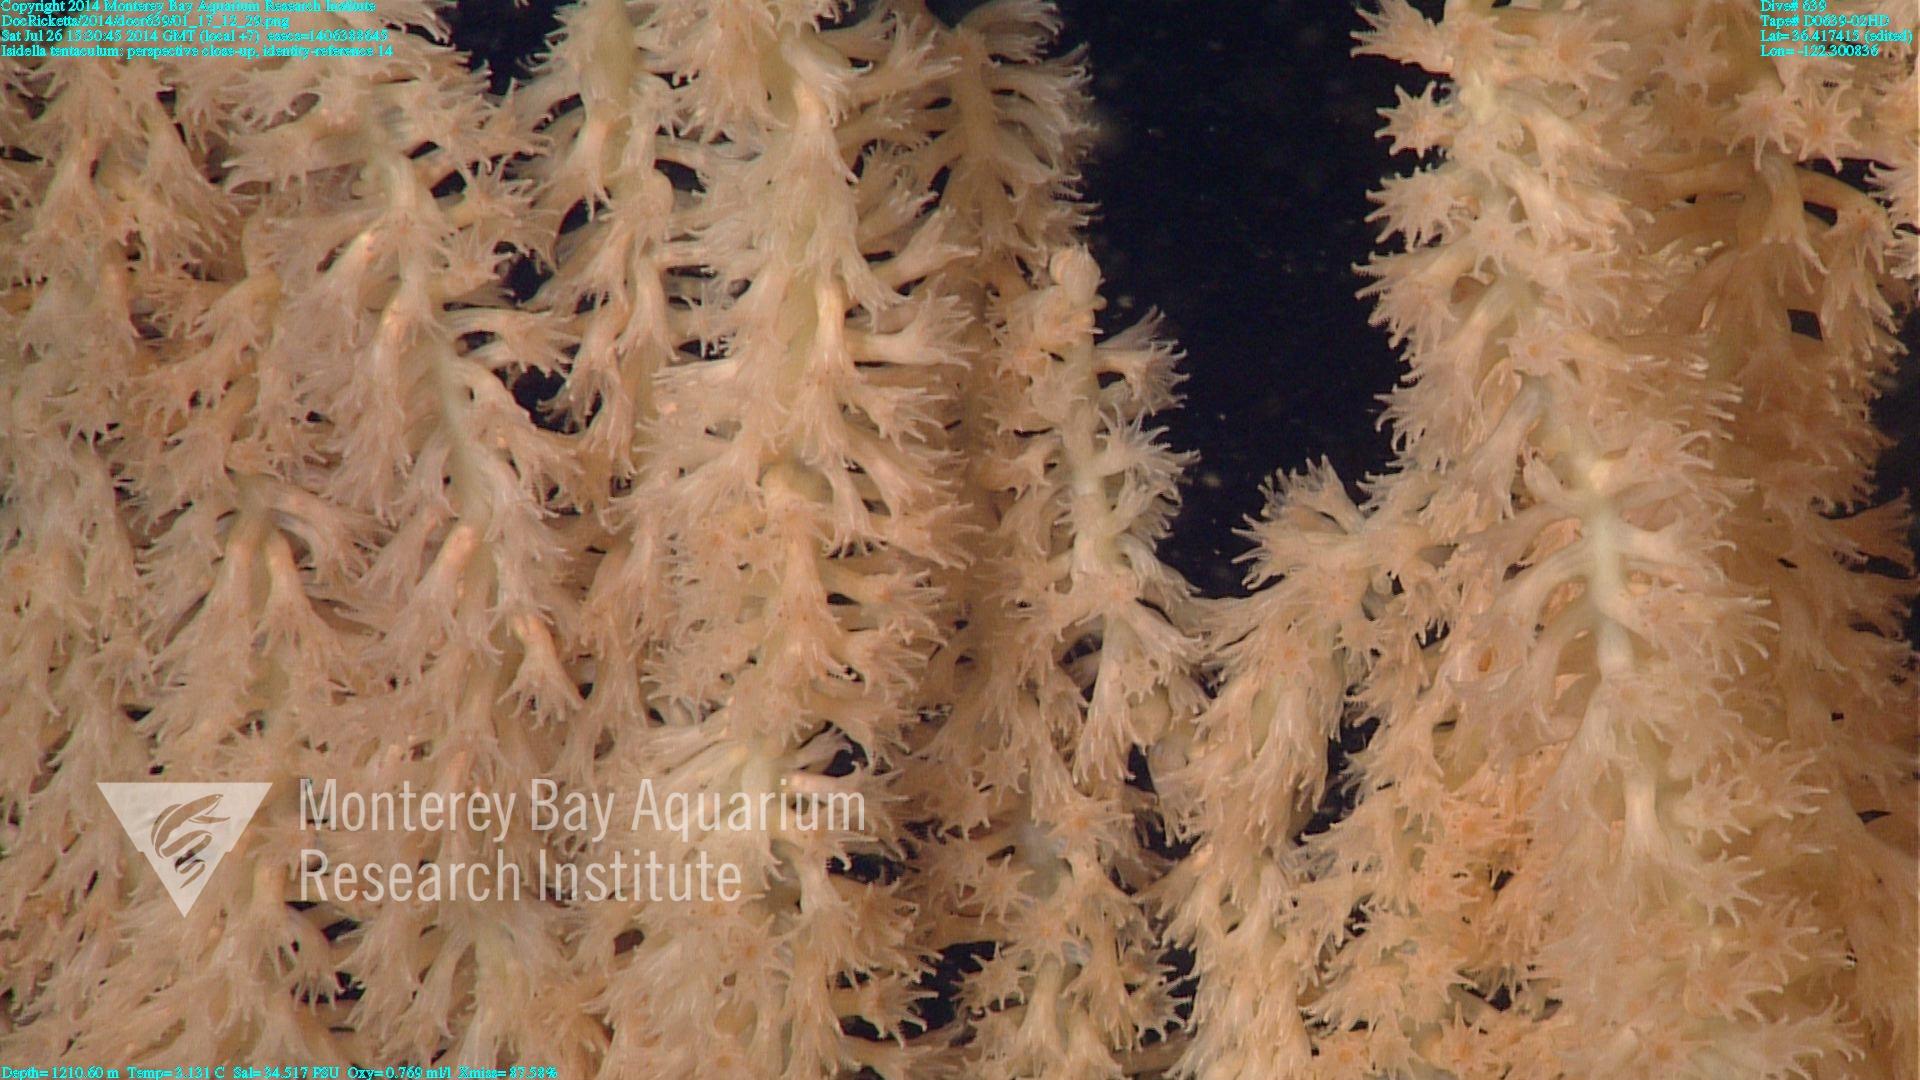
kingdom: Animalia
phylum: Cnidaria
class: Anthozoa
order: Scleralcyonacea
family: Keratoisididae
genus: Isidella
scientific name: Isidella tentaculum
